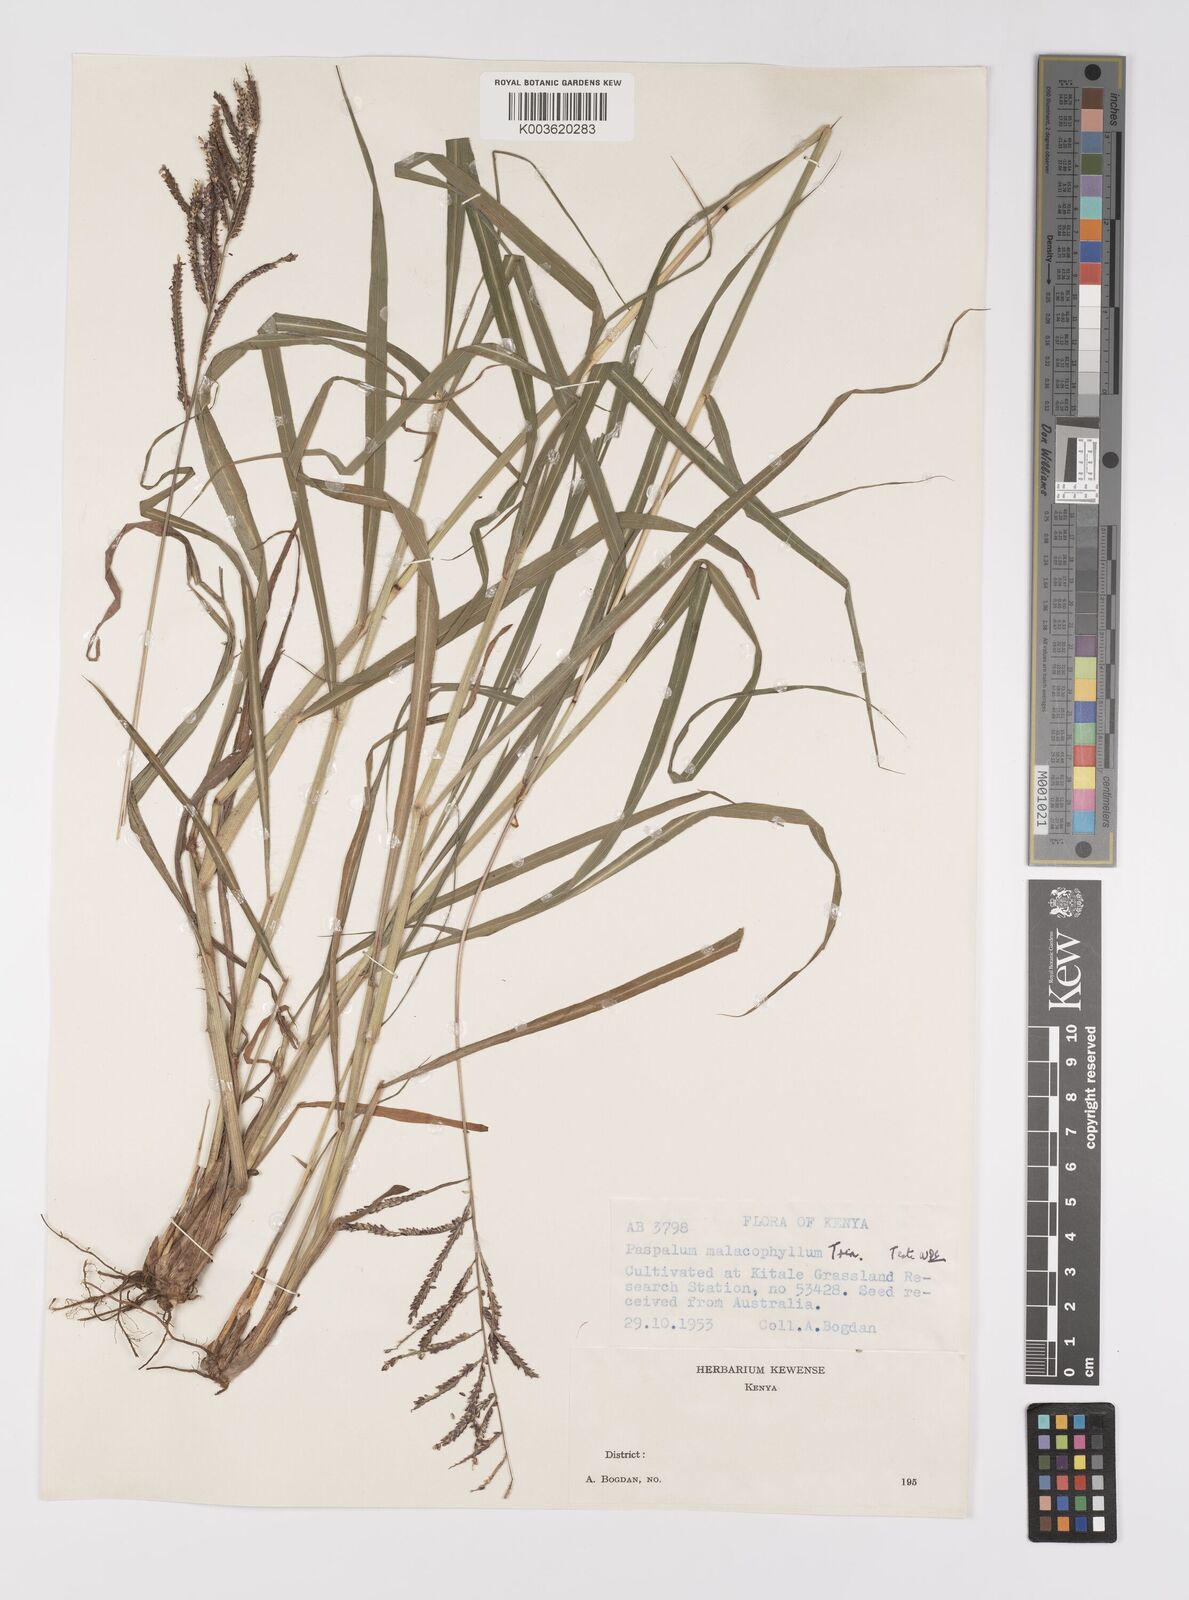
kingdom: Plantae
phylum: Tracheophyta
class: Liliopsida
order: Poales
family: Poaceae
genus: Paspalum
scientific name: Paspalum malacophyllum
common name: Ribbed paspalum
